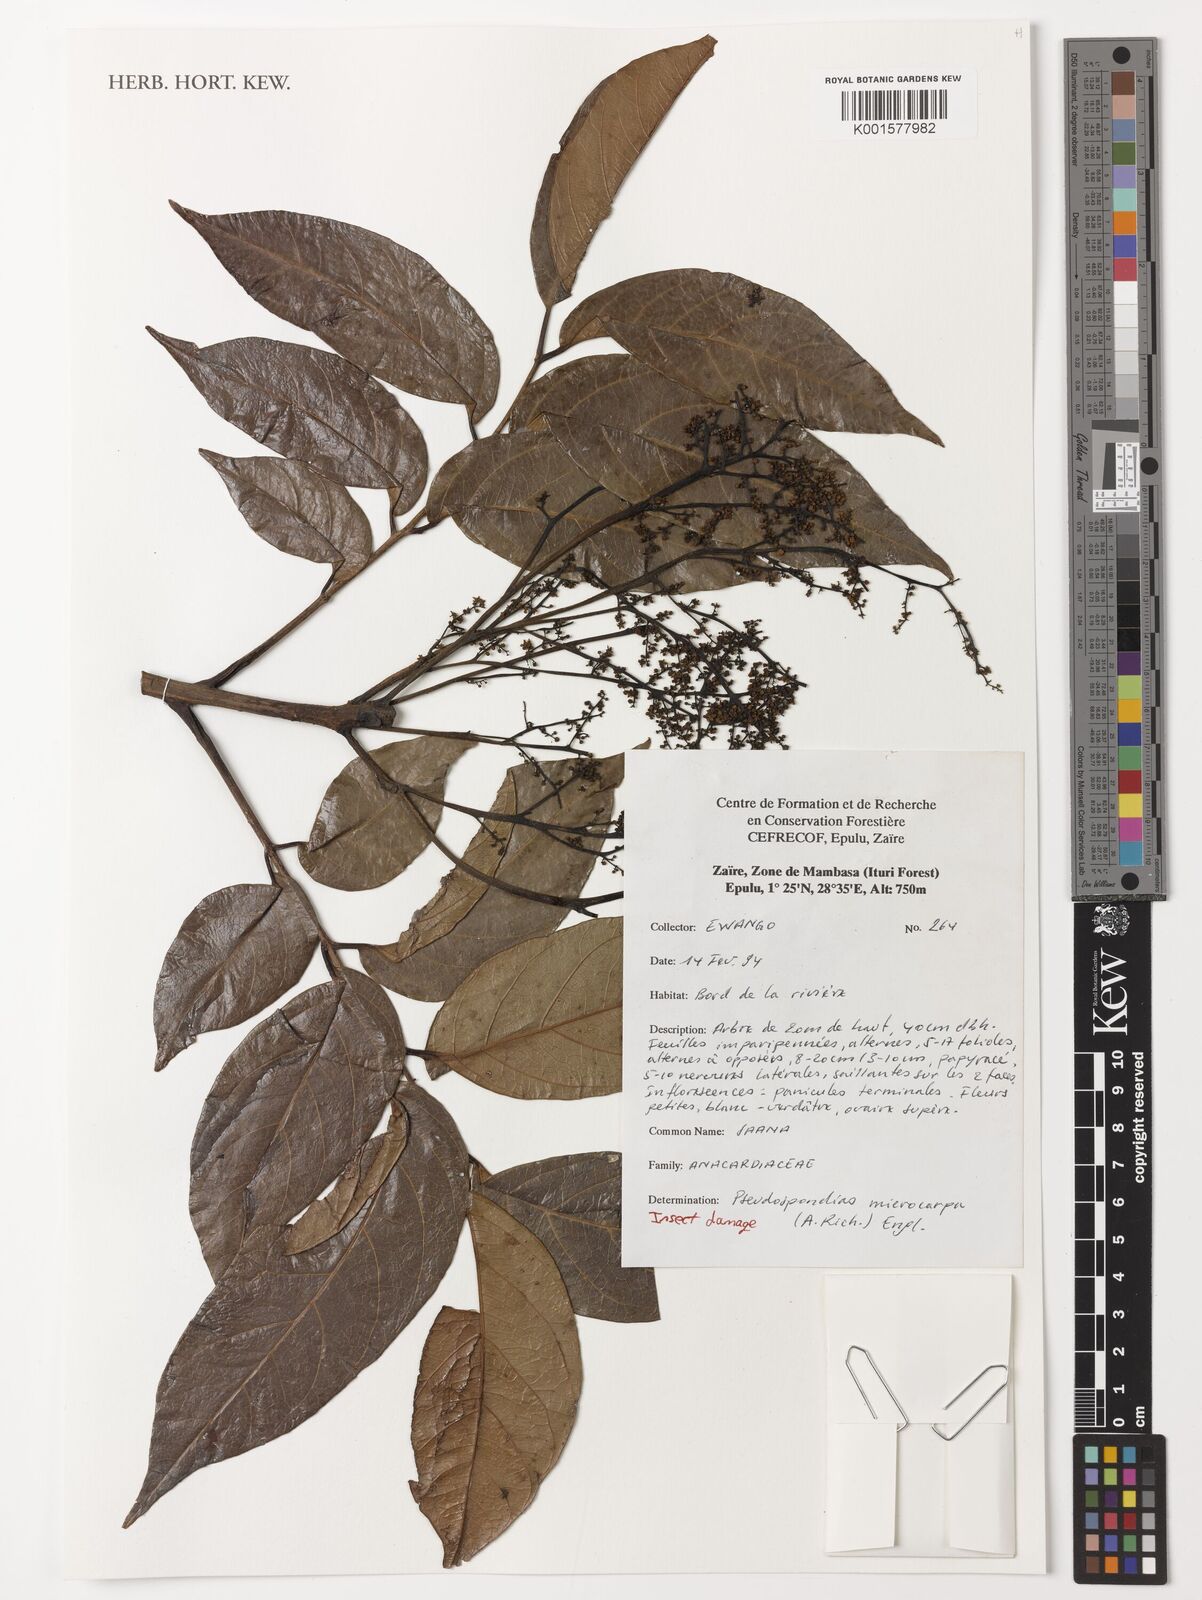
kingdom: Plantae
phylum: Tracheophyta
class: Magnoliopsida
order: Sapindales
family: Anacardiaceae
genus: Pseudospondias
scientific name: Pseudospondias microcarpa
